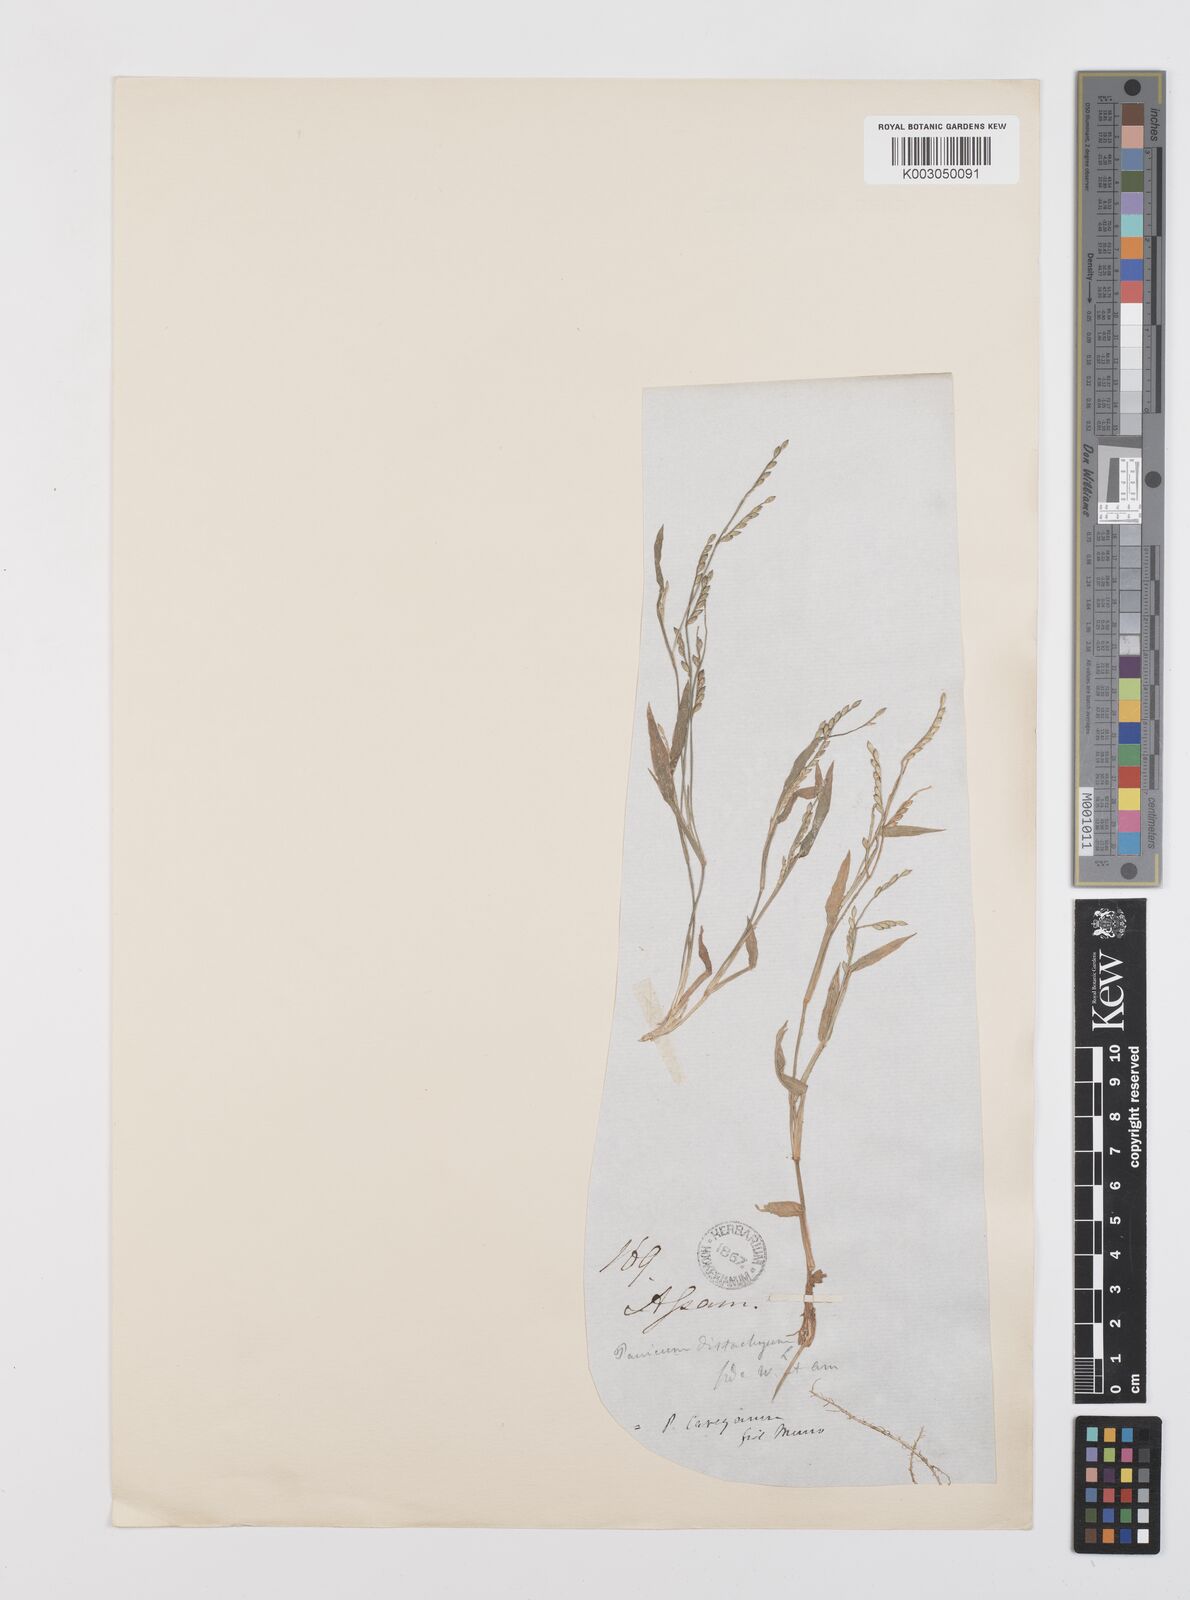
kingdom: Plantae
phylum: Tracheophyta
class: Liliopsida
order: Poales
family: Poaceae
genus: Urochloa
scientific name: Urochloa subquadripara
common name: Armgrass millet
